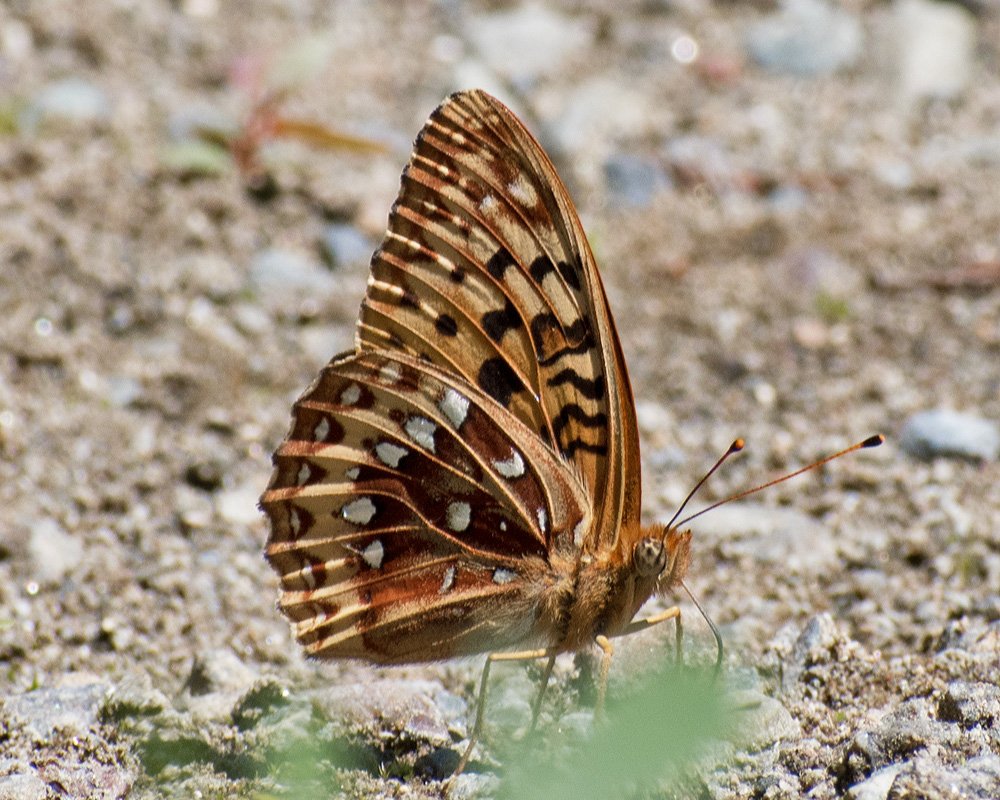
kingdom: Animalia
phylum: Arthropoda
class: Insecta
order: Lepidoptera
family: Nymphalidae
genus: Speyeria
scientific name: Speyeria cybele
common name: Great Spangled Fritillary
